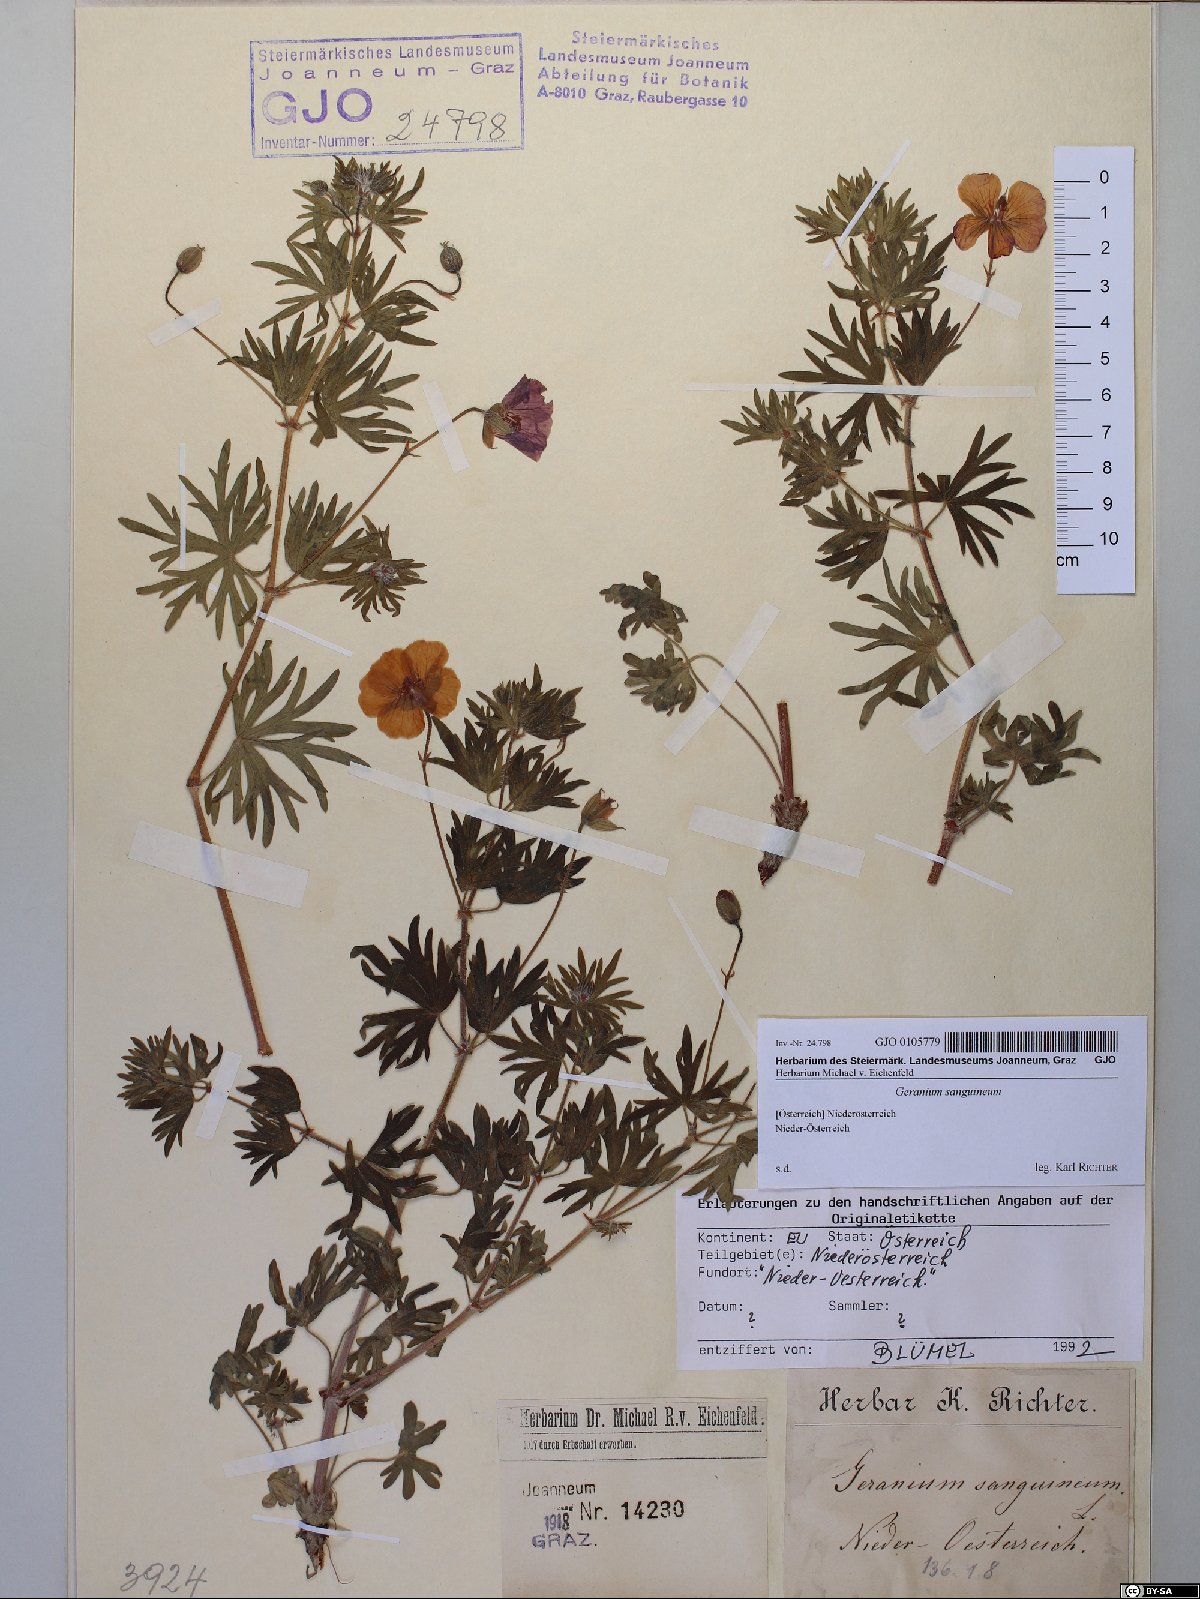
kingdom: Plantae
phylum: Tracheophyta
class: Magnoliopsida
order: Geraniales
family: Geraniaceae
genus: Geranium
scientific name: Geranium sanguineum
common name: Bloody crane's-bill
